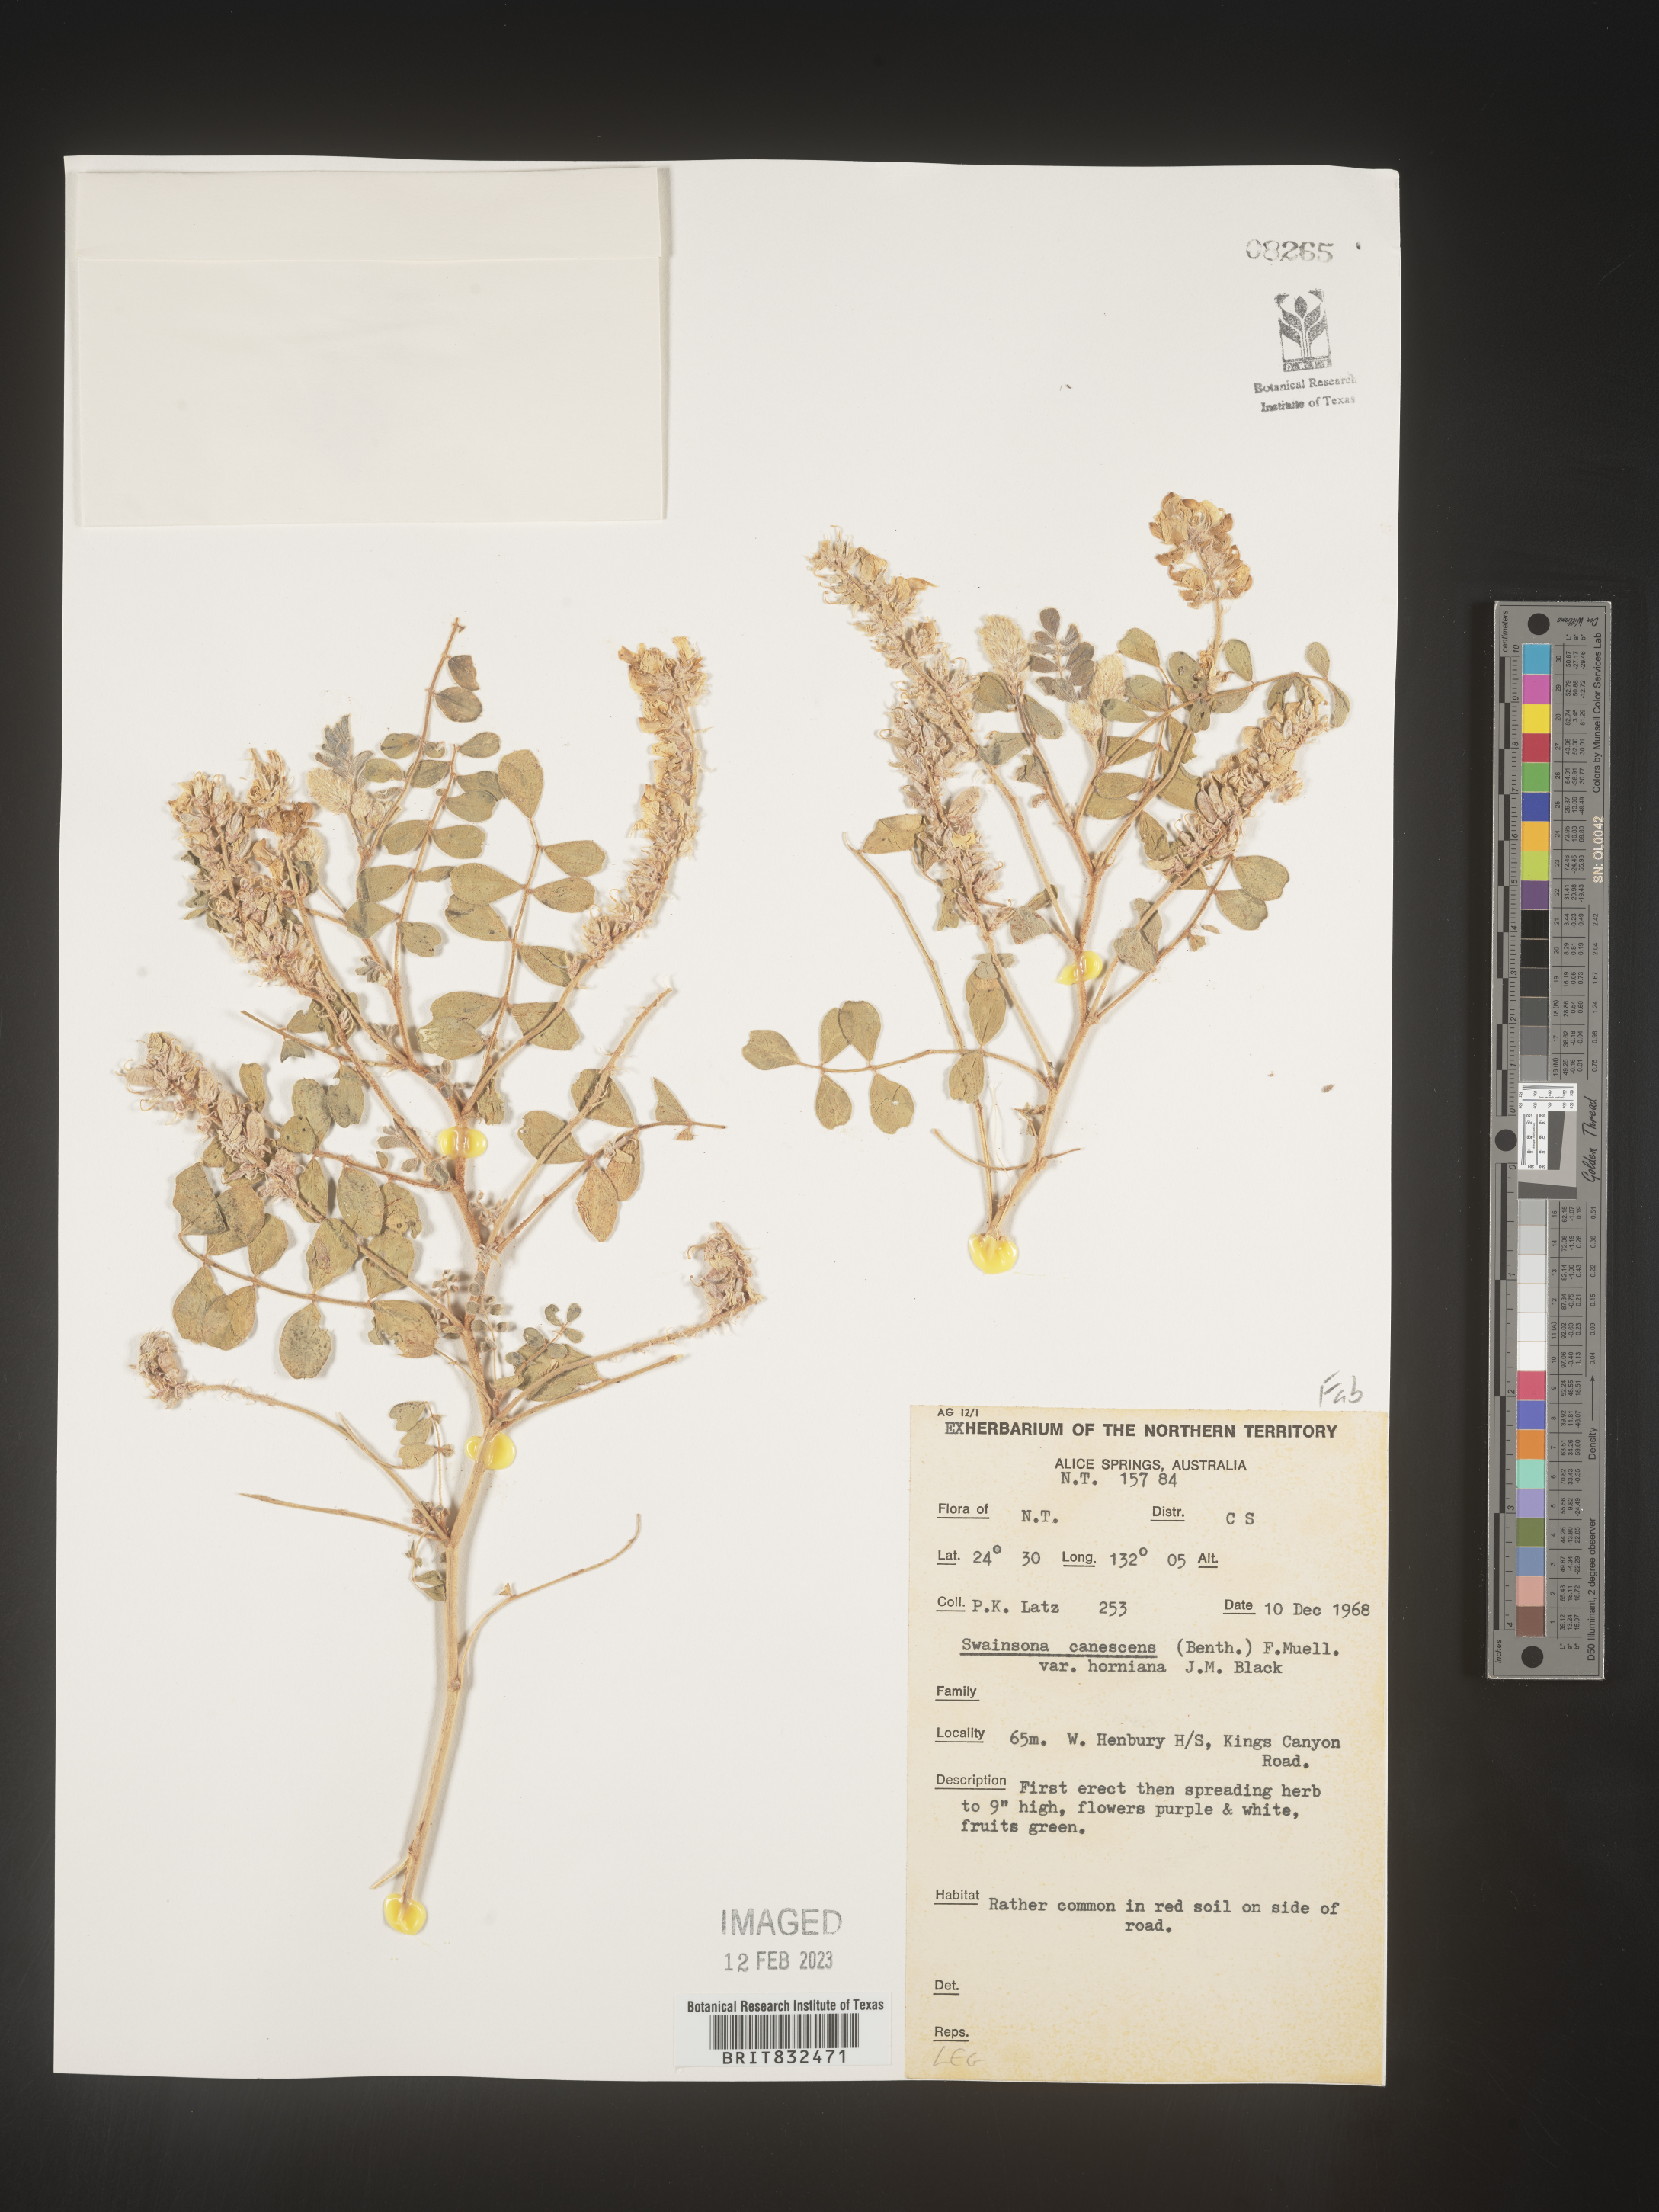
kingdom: Plantae
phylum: Tracheophyta
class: Magnoliopsida
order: Fabales
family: Fabaceae
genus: Swainsona
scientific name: Swainsona
